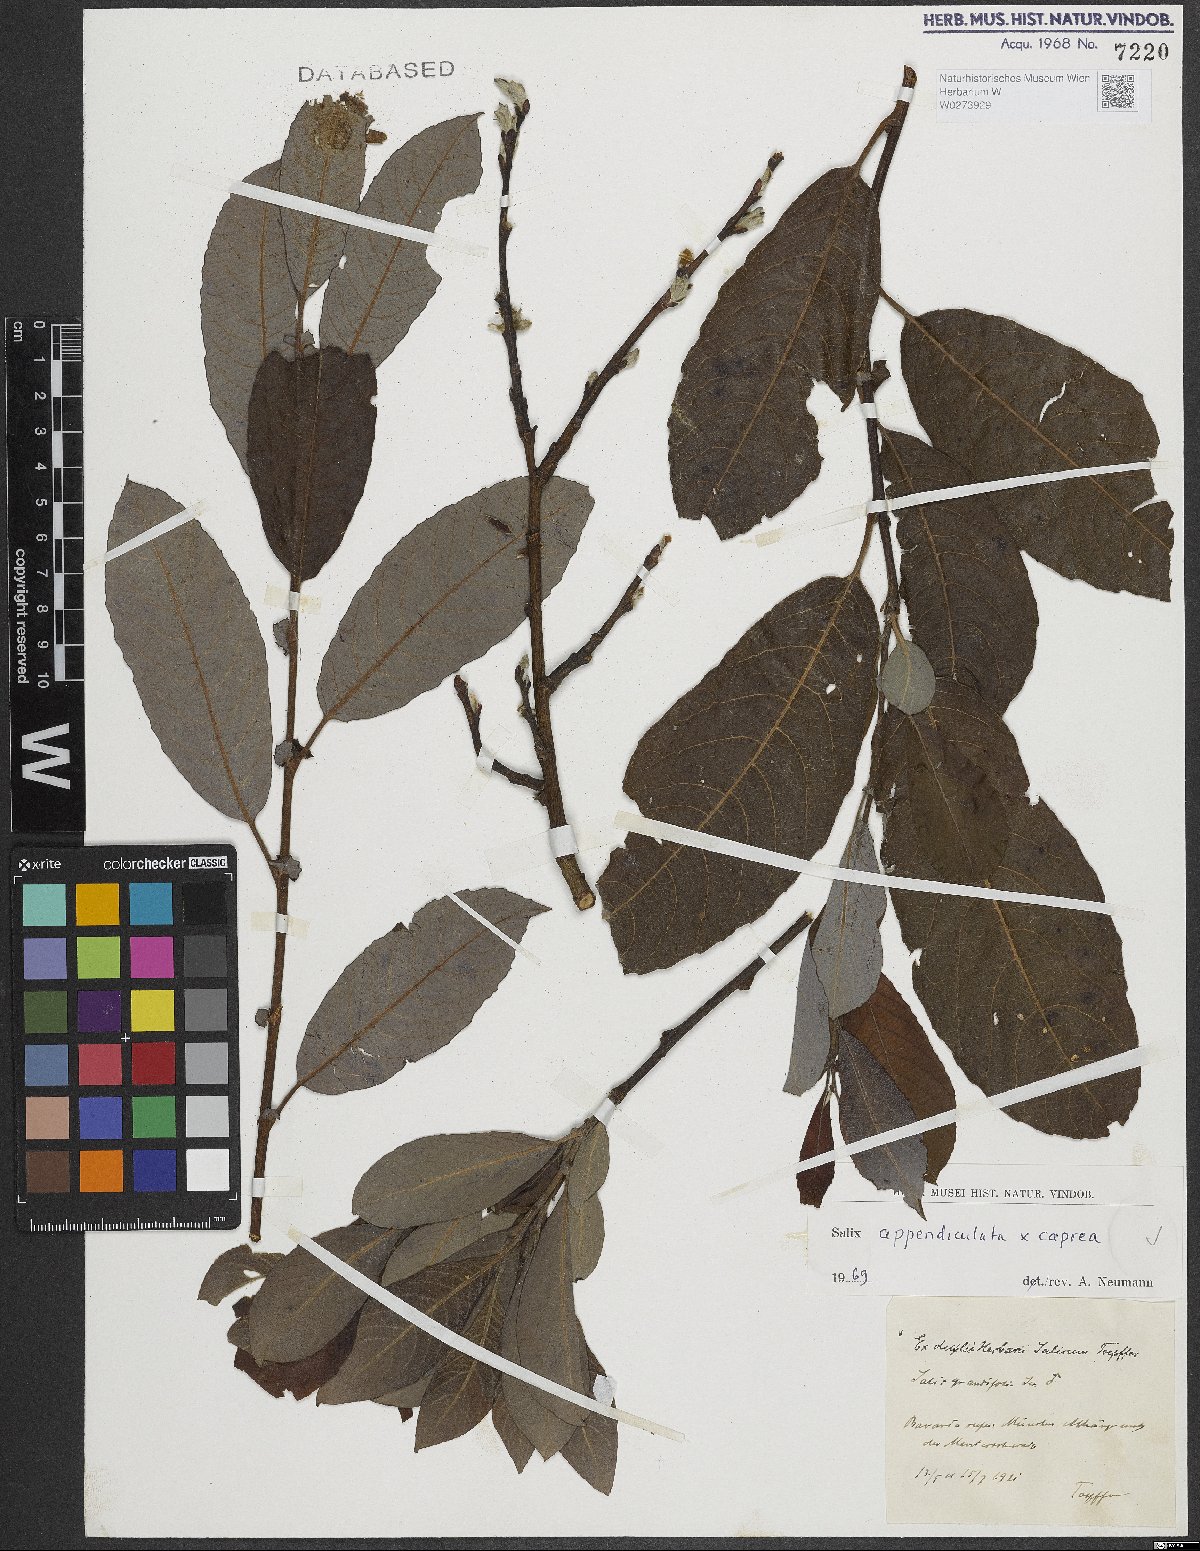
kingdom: Plantae
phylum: Tracheophyta
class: Magnoliopsida
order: Malpighiales
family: Salicaceae
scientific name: Salicaceae
